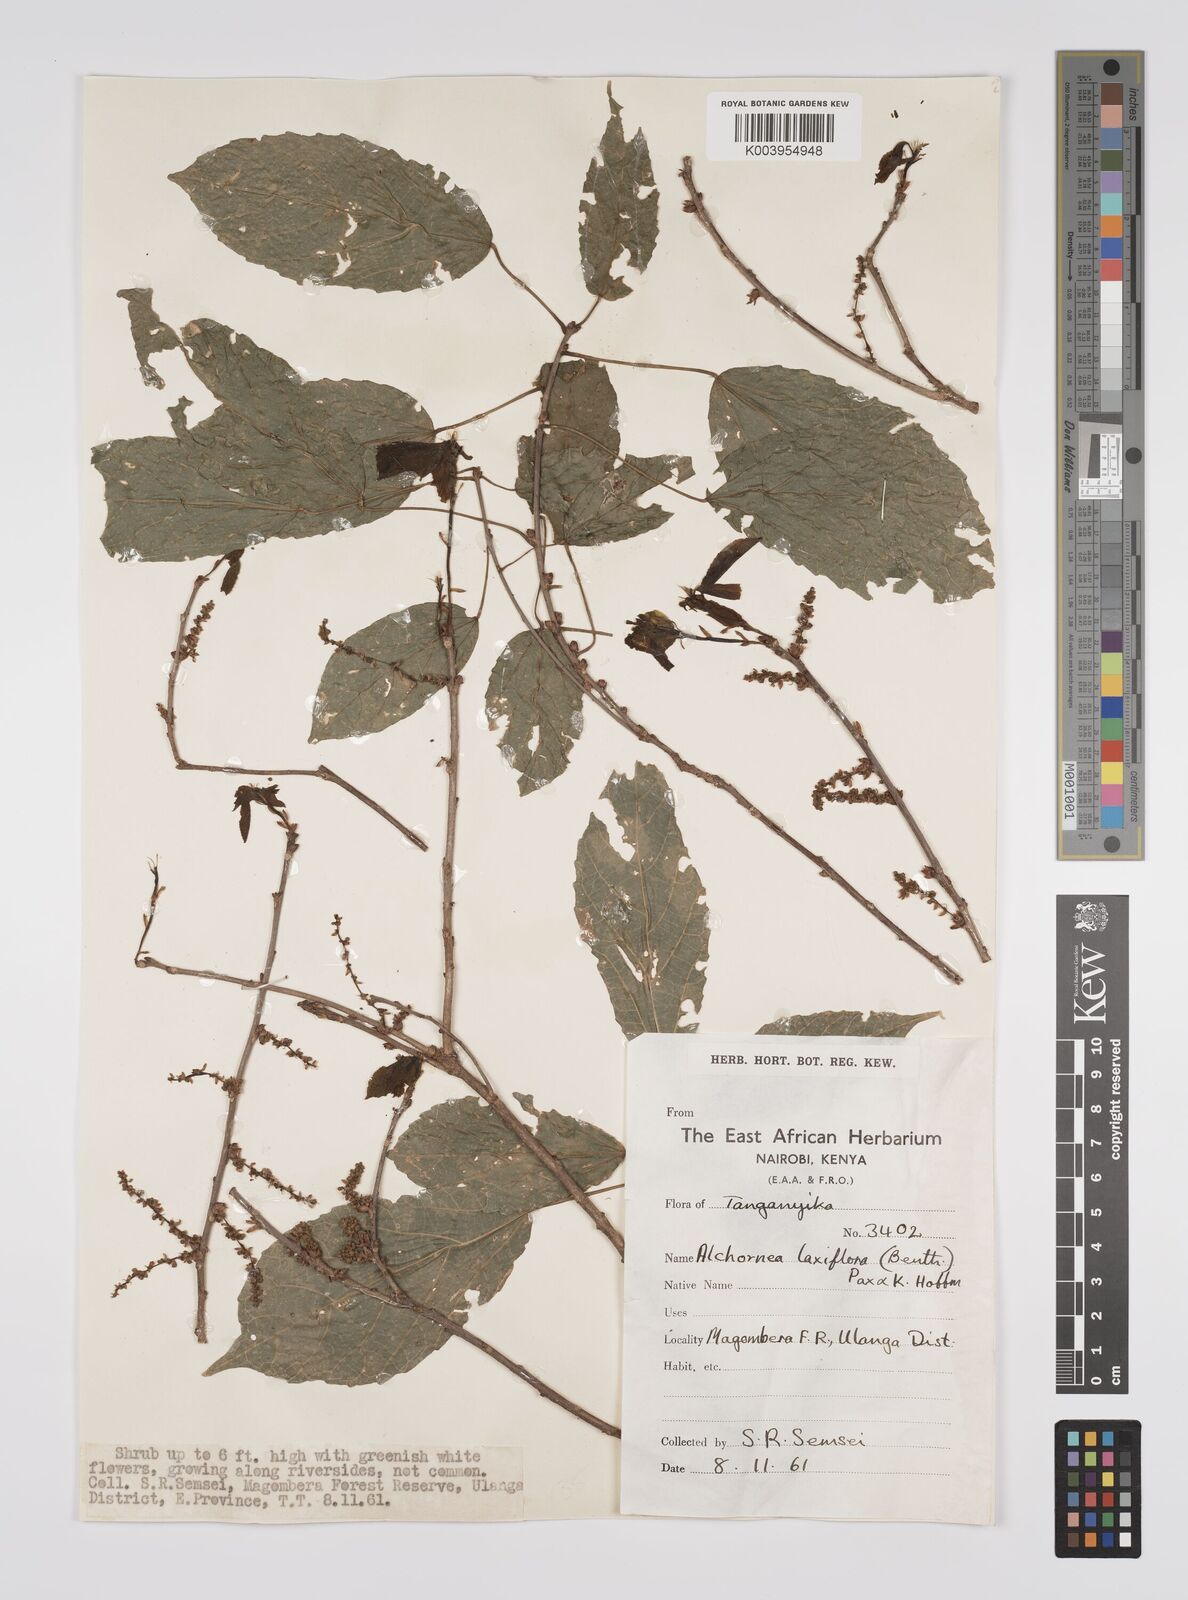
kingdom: Plantae
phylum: Tracheophyta
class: Magnoliopsida
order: Malpighiales
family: Euphorbiaceae
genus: Alchornea
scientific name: Alchornea laxiflora
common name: Lowveld bead-string
